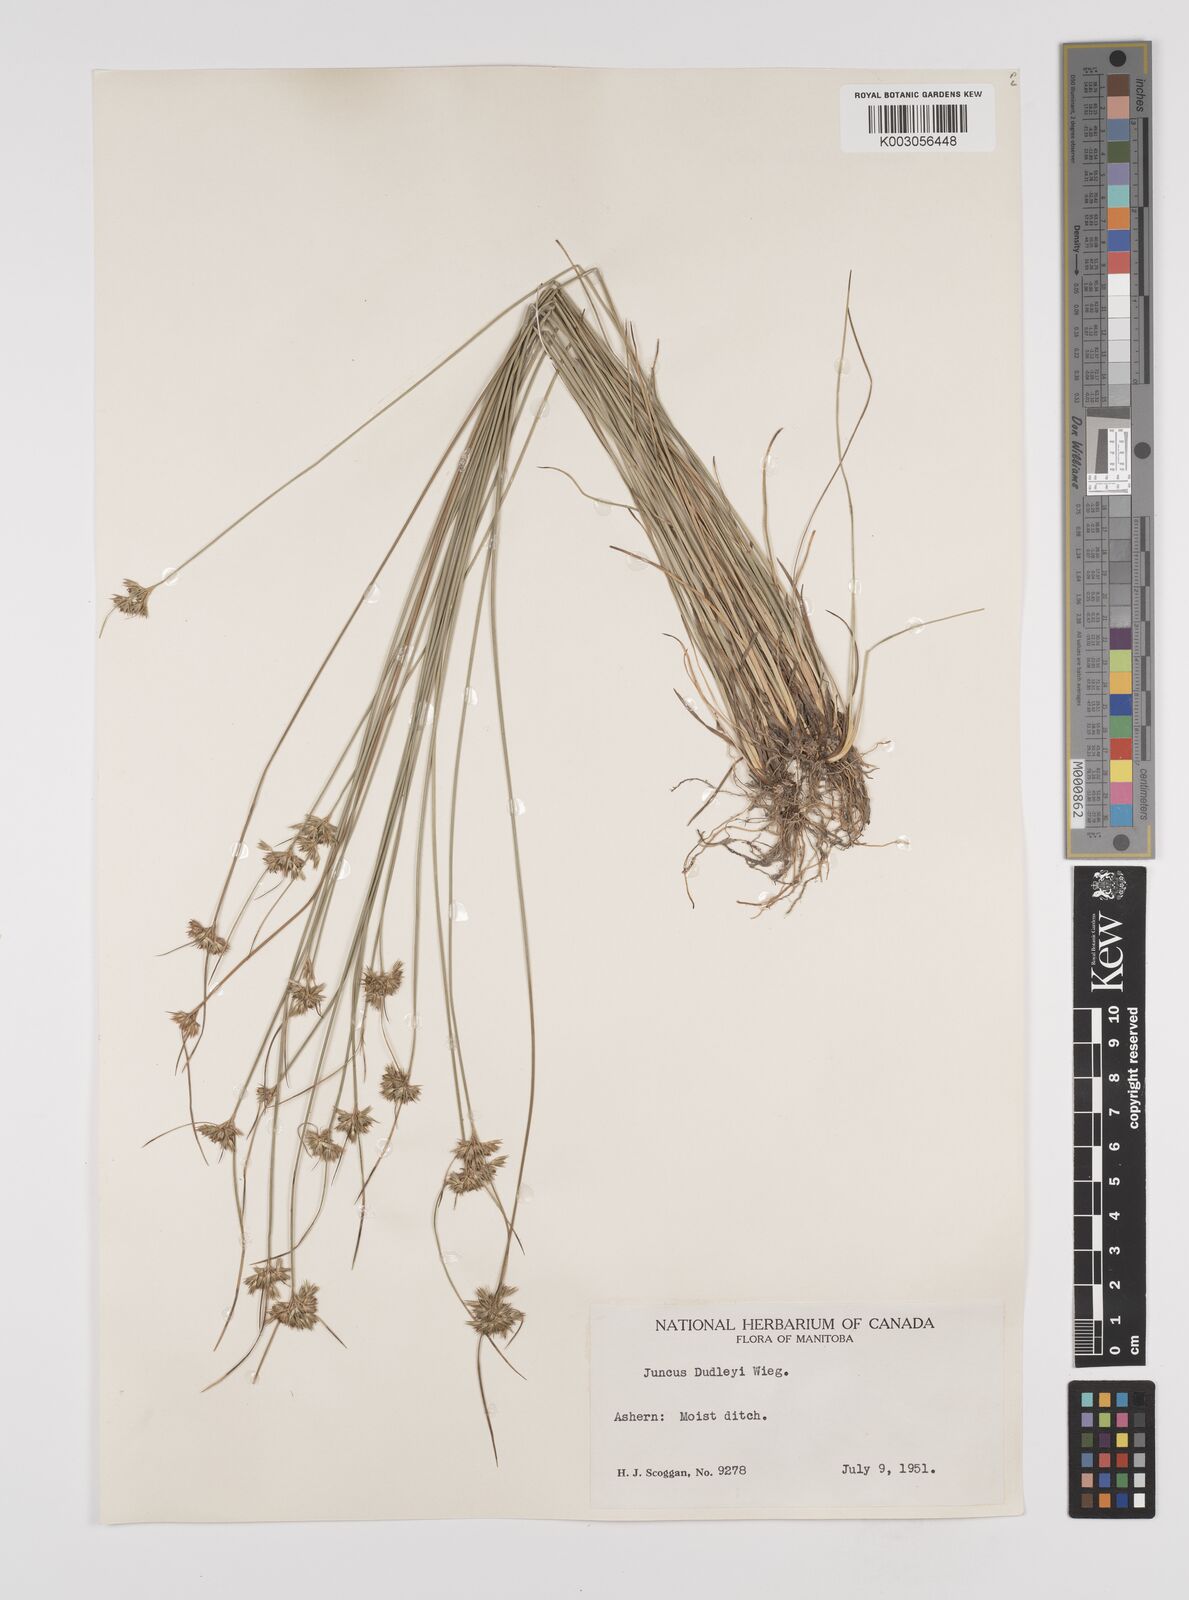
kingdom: Plantae
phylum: Tracheophyta
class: Liliopsida
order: Poales
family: Juncaceae
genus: Juncus
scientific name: Juncus dudleyi
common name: Dudley's rush
